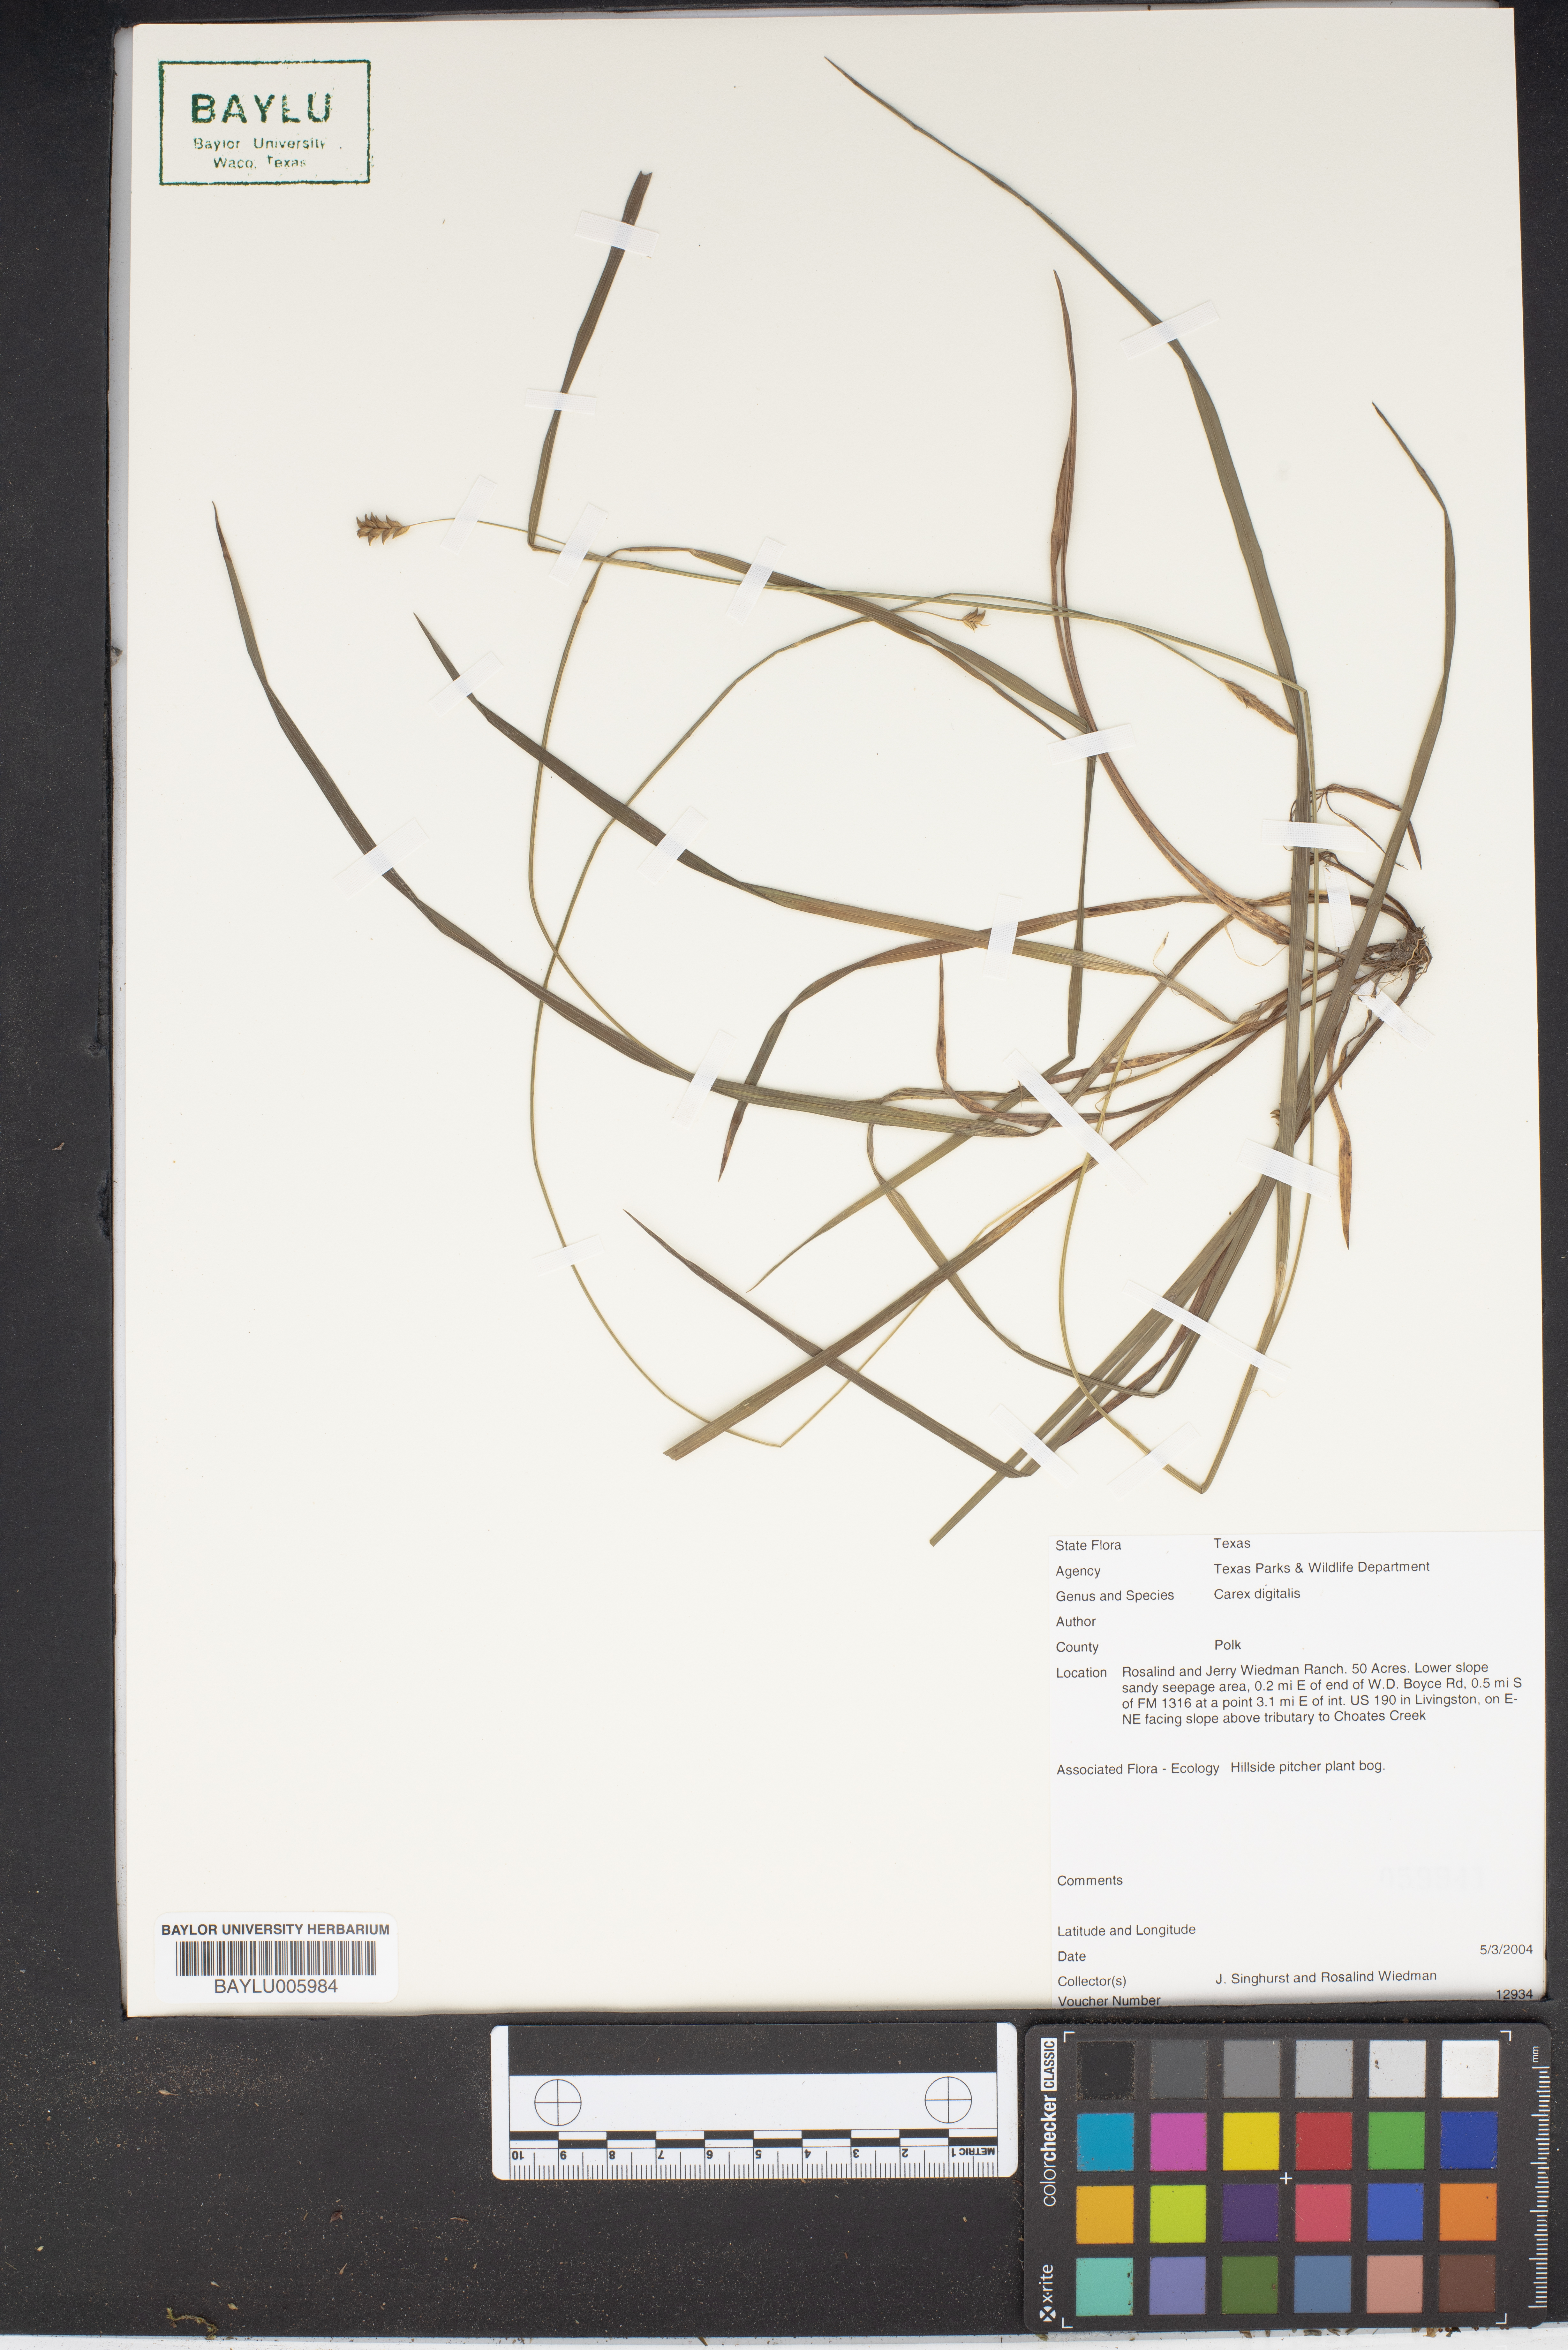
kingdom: Plantae
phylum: Tracheophyta
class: Liliopsida
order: Poales
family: Cyperaceae
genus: Carex
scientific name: Carex digitalis
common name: Slender wood sedge
